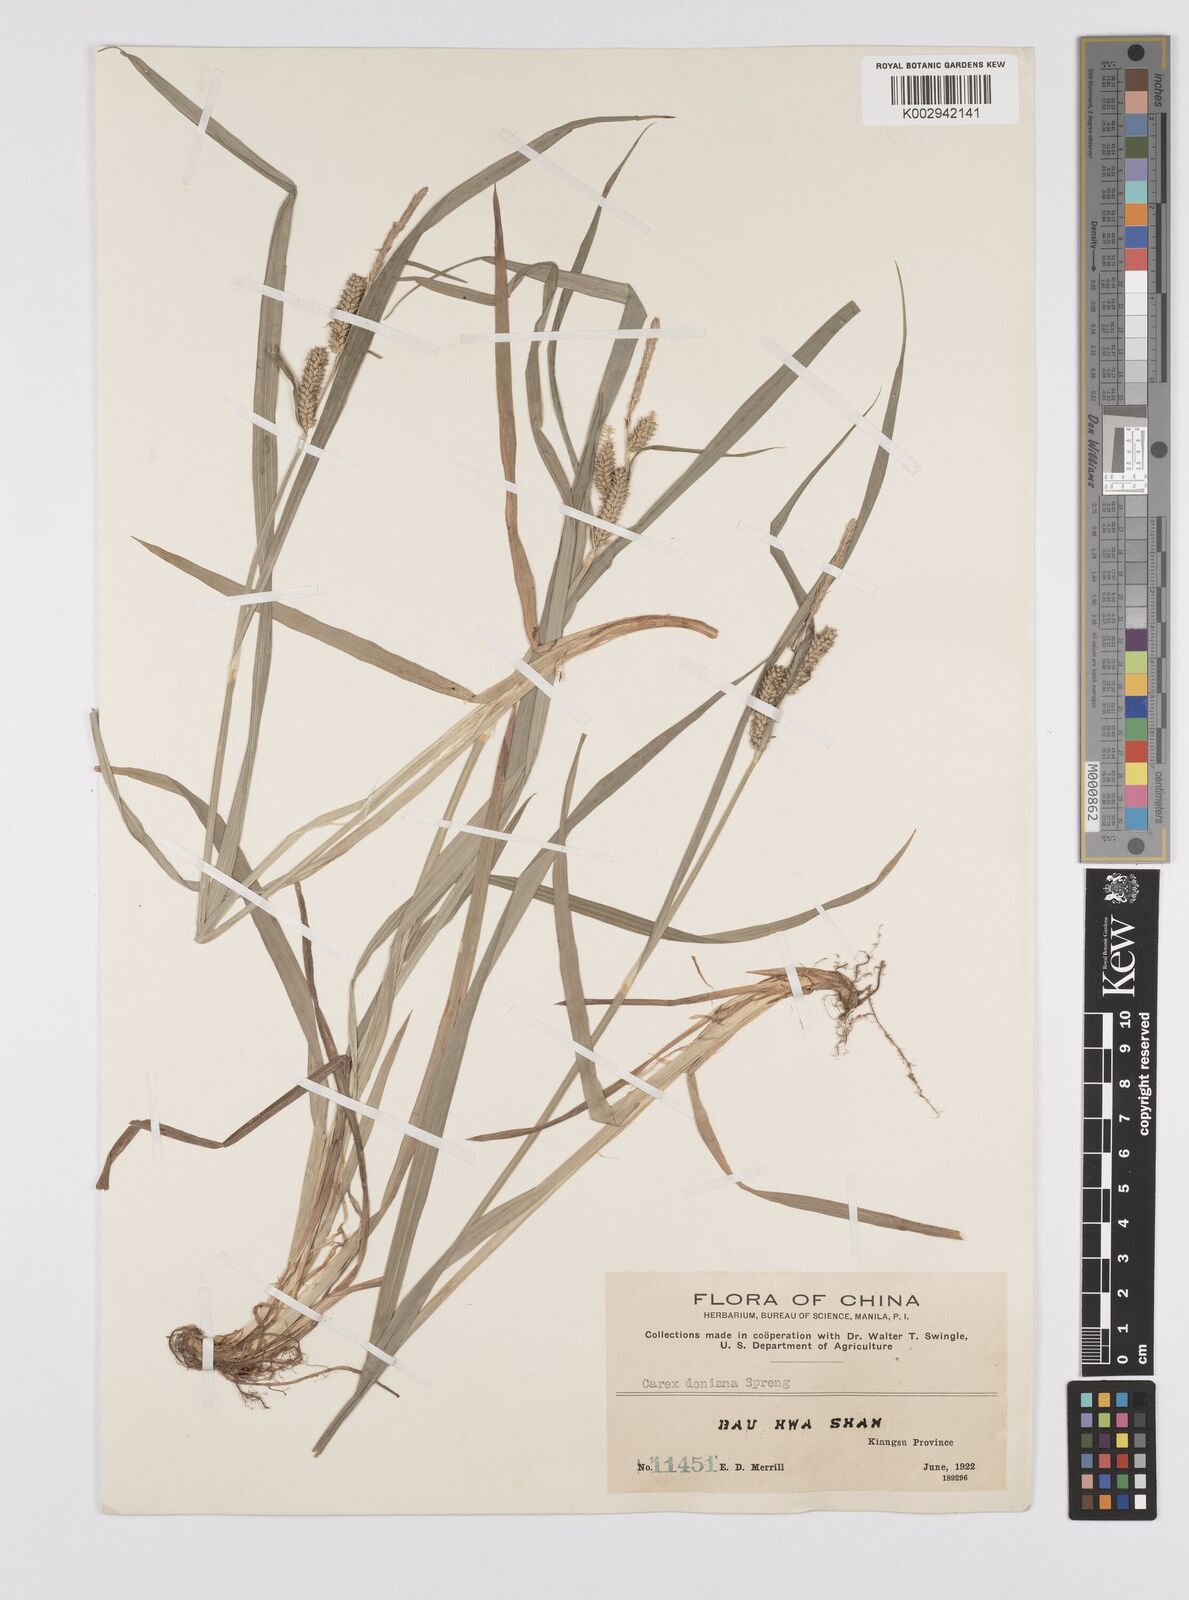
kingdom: Plantae
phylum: Tracheophyta
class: Liliopsida
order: Poales
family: Cyperaceae
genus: Carex
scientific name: Carex japonica
